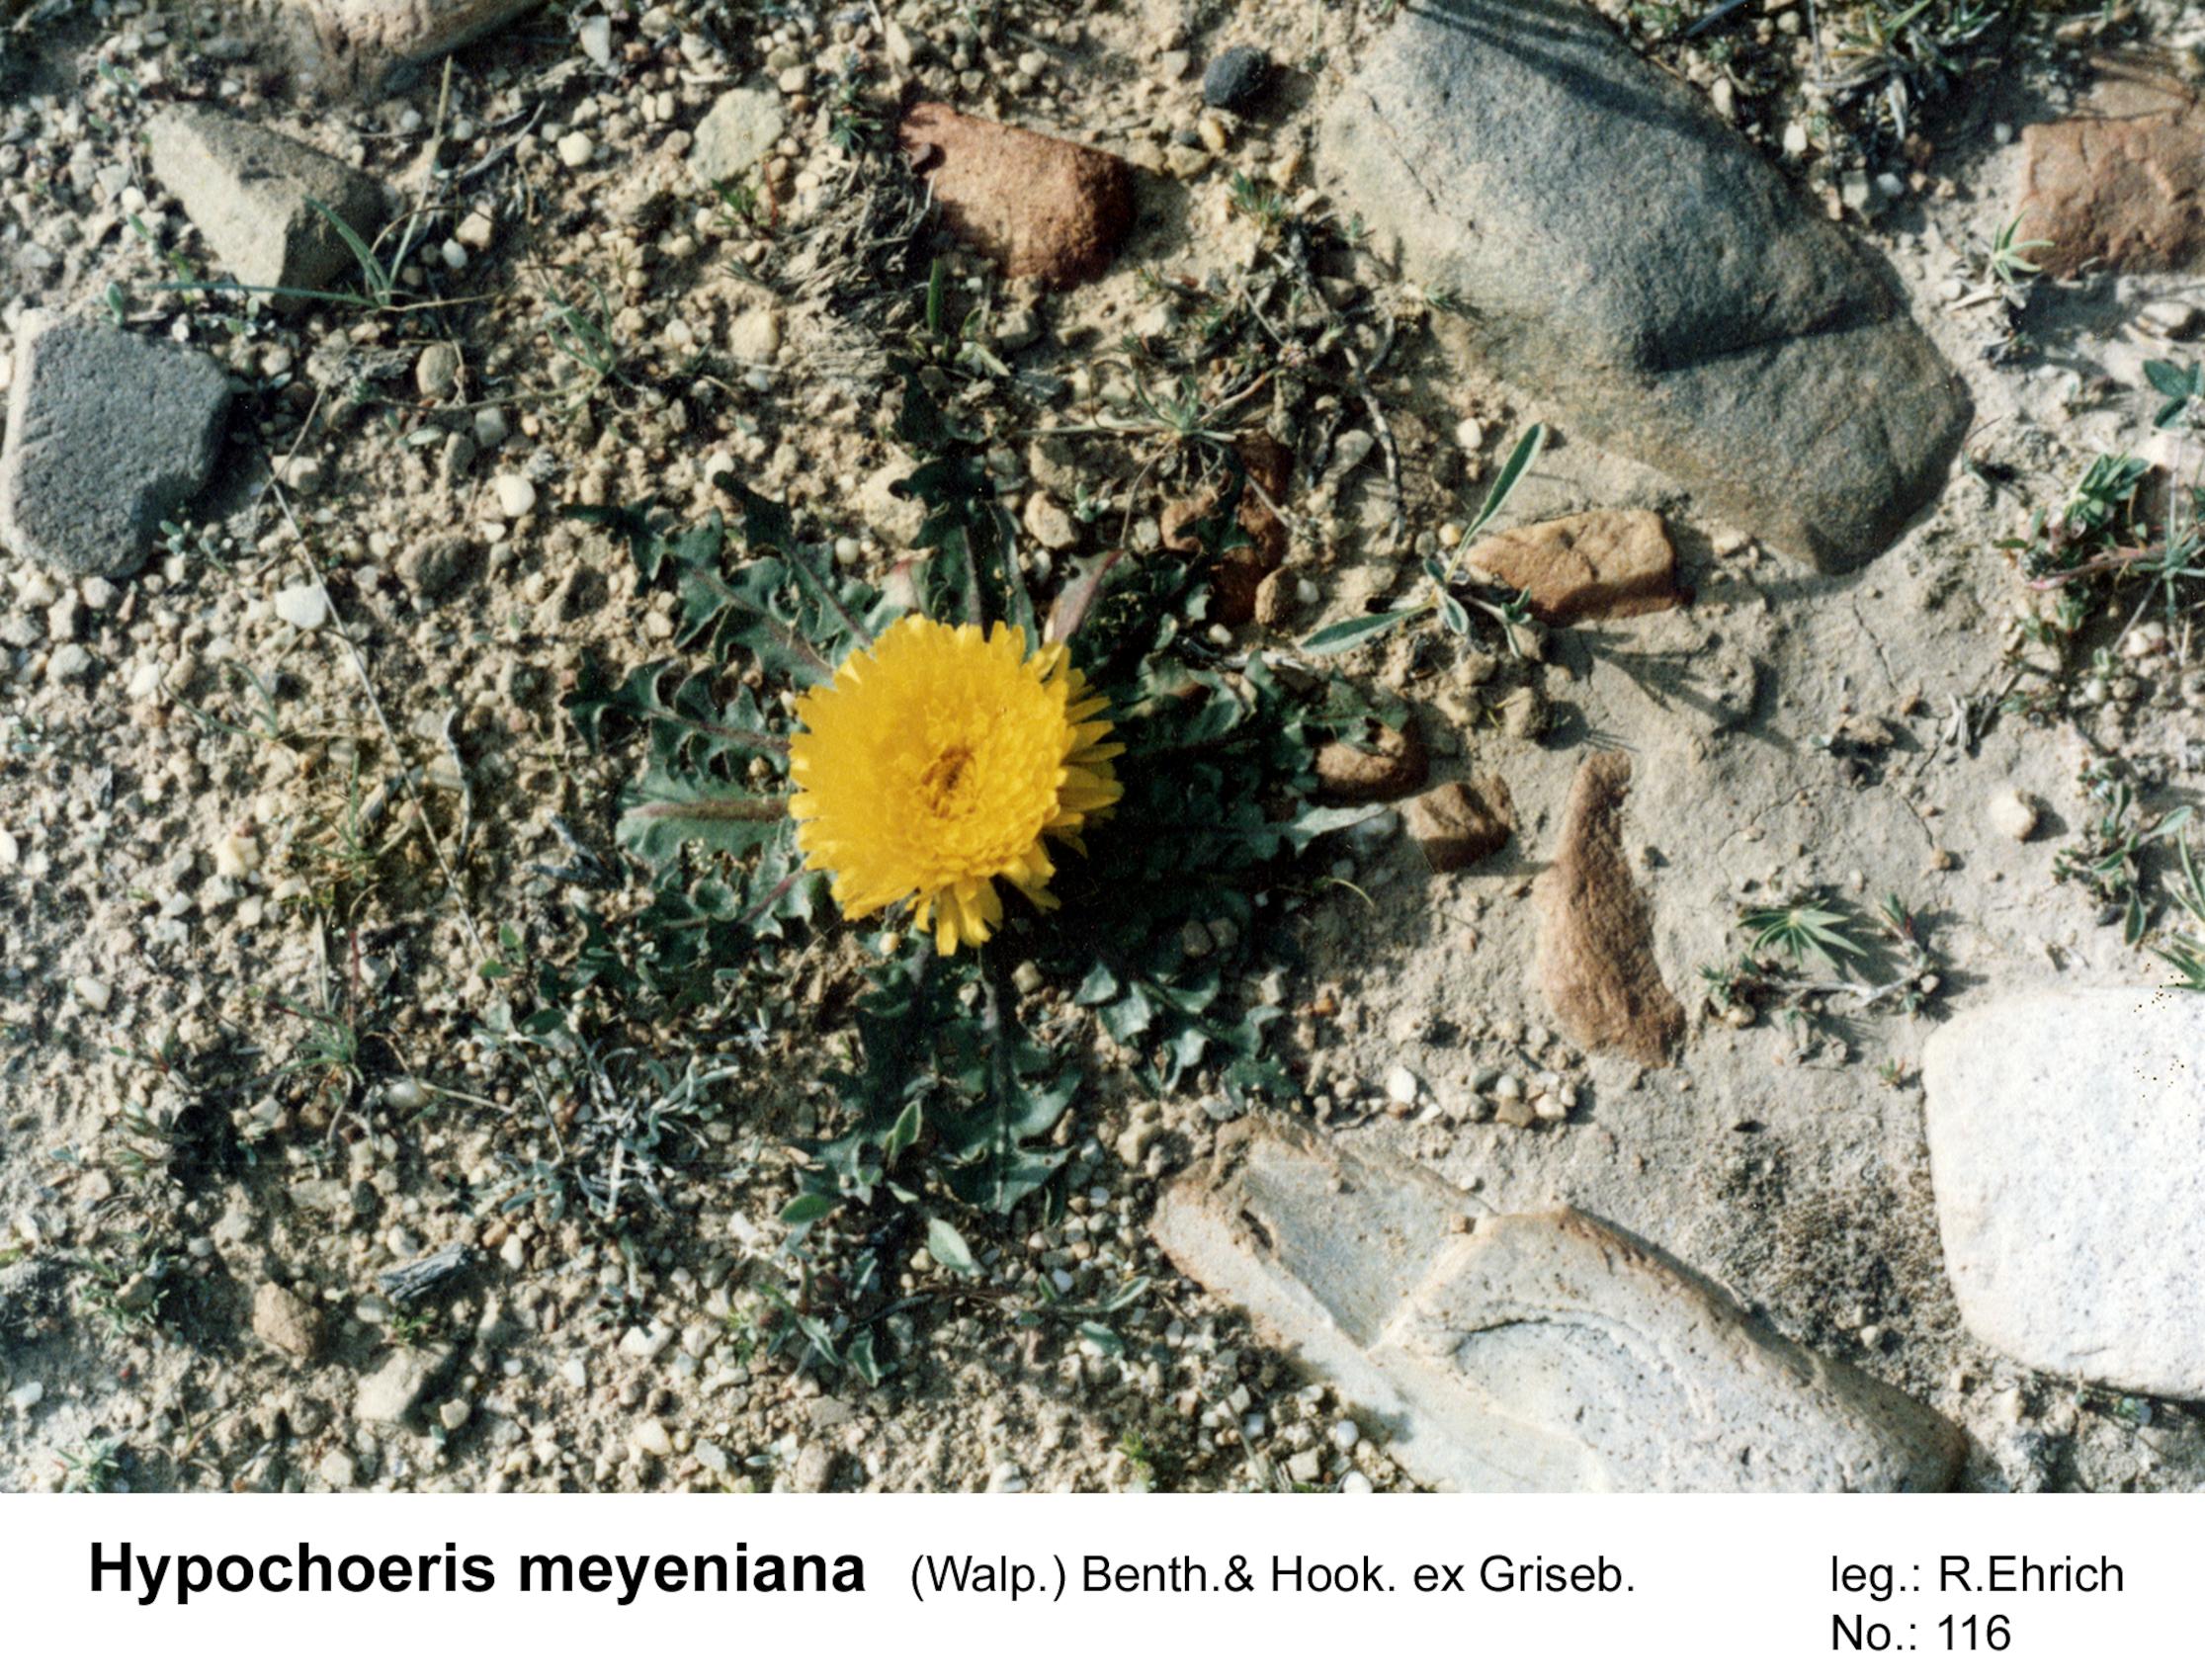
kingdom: Plantae
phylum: Tracheophyta
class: Magnoliopsida
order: Asterales
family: Asteraceae
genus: Hypochaeris
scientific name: Hypochaeris meyeniana
